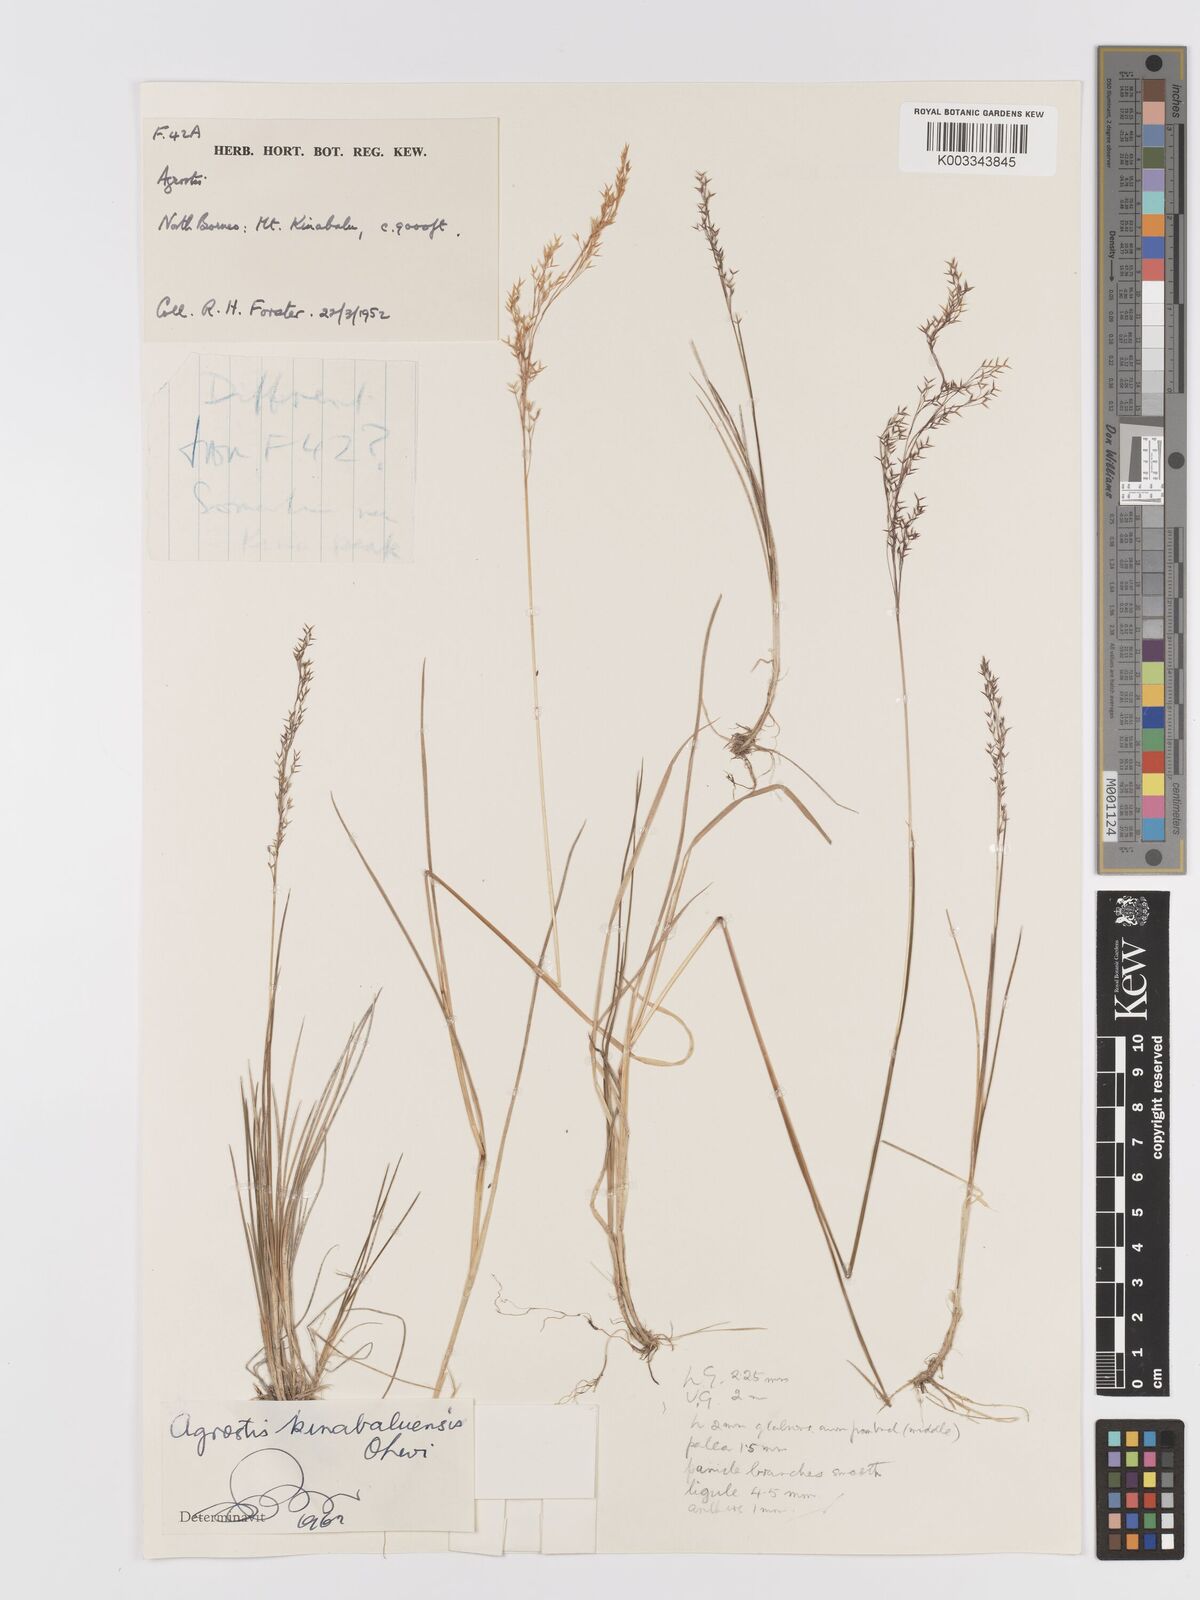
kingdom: Plantae
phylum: Tracheophyta
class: Liliopsida
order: Poales
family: Poaceae
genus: Agrostis
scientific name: Agrostis infirma
